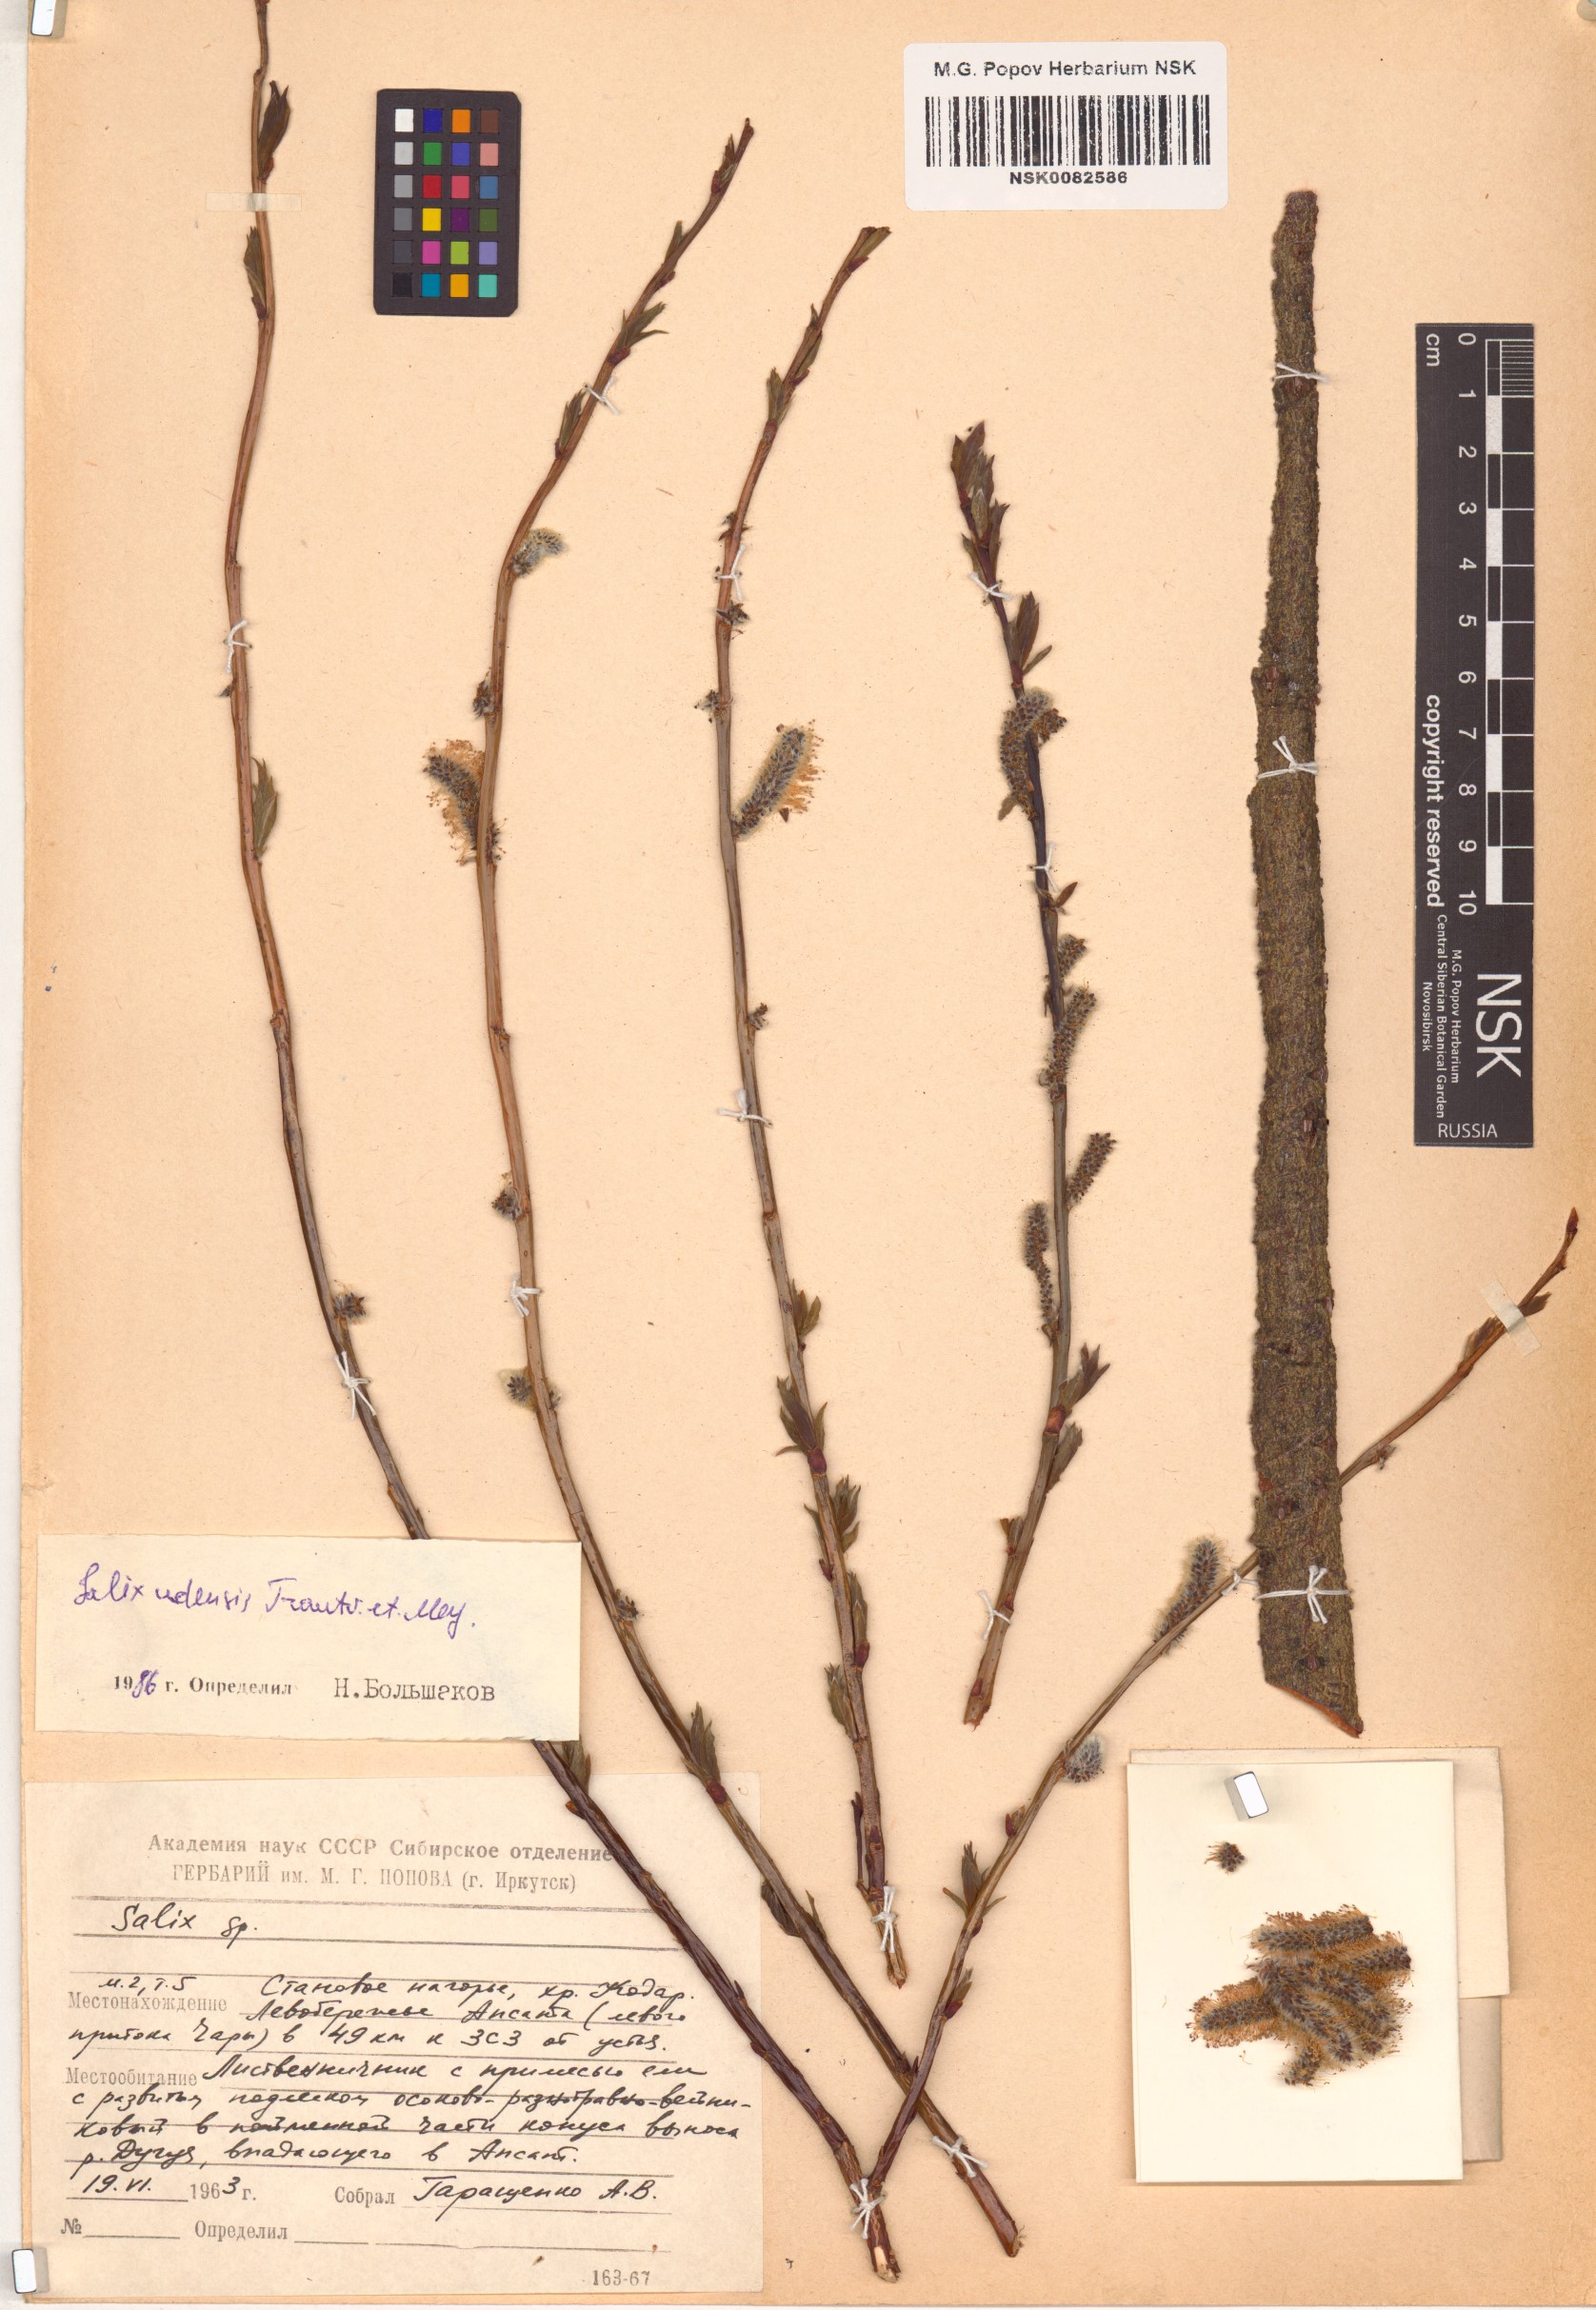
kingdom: Plantae
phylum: Tracheophyta
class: Magnoliopsida
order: Malpighiales
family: Salicaceae
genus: Salix
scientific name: Salix udensis
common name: Sachalin willow
